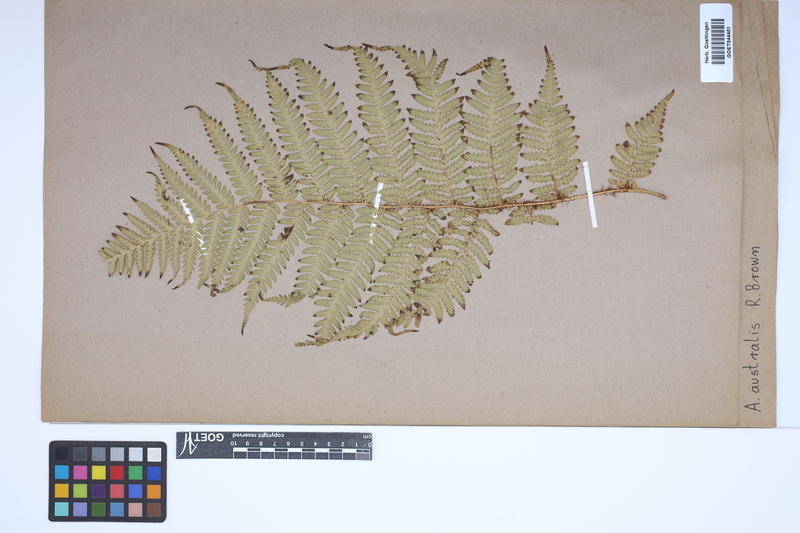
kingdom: Plantae
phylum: Tracheophyta
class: Polypodiopsida
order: Cyatheales
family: Cyatheaceae
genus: Alsophila
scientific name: Alsophila australis
